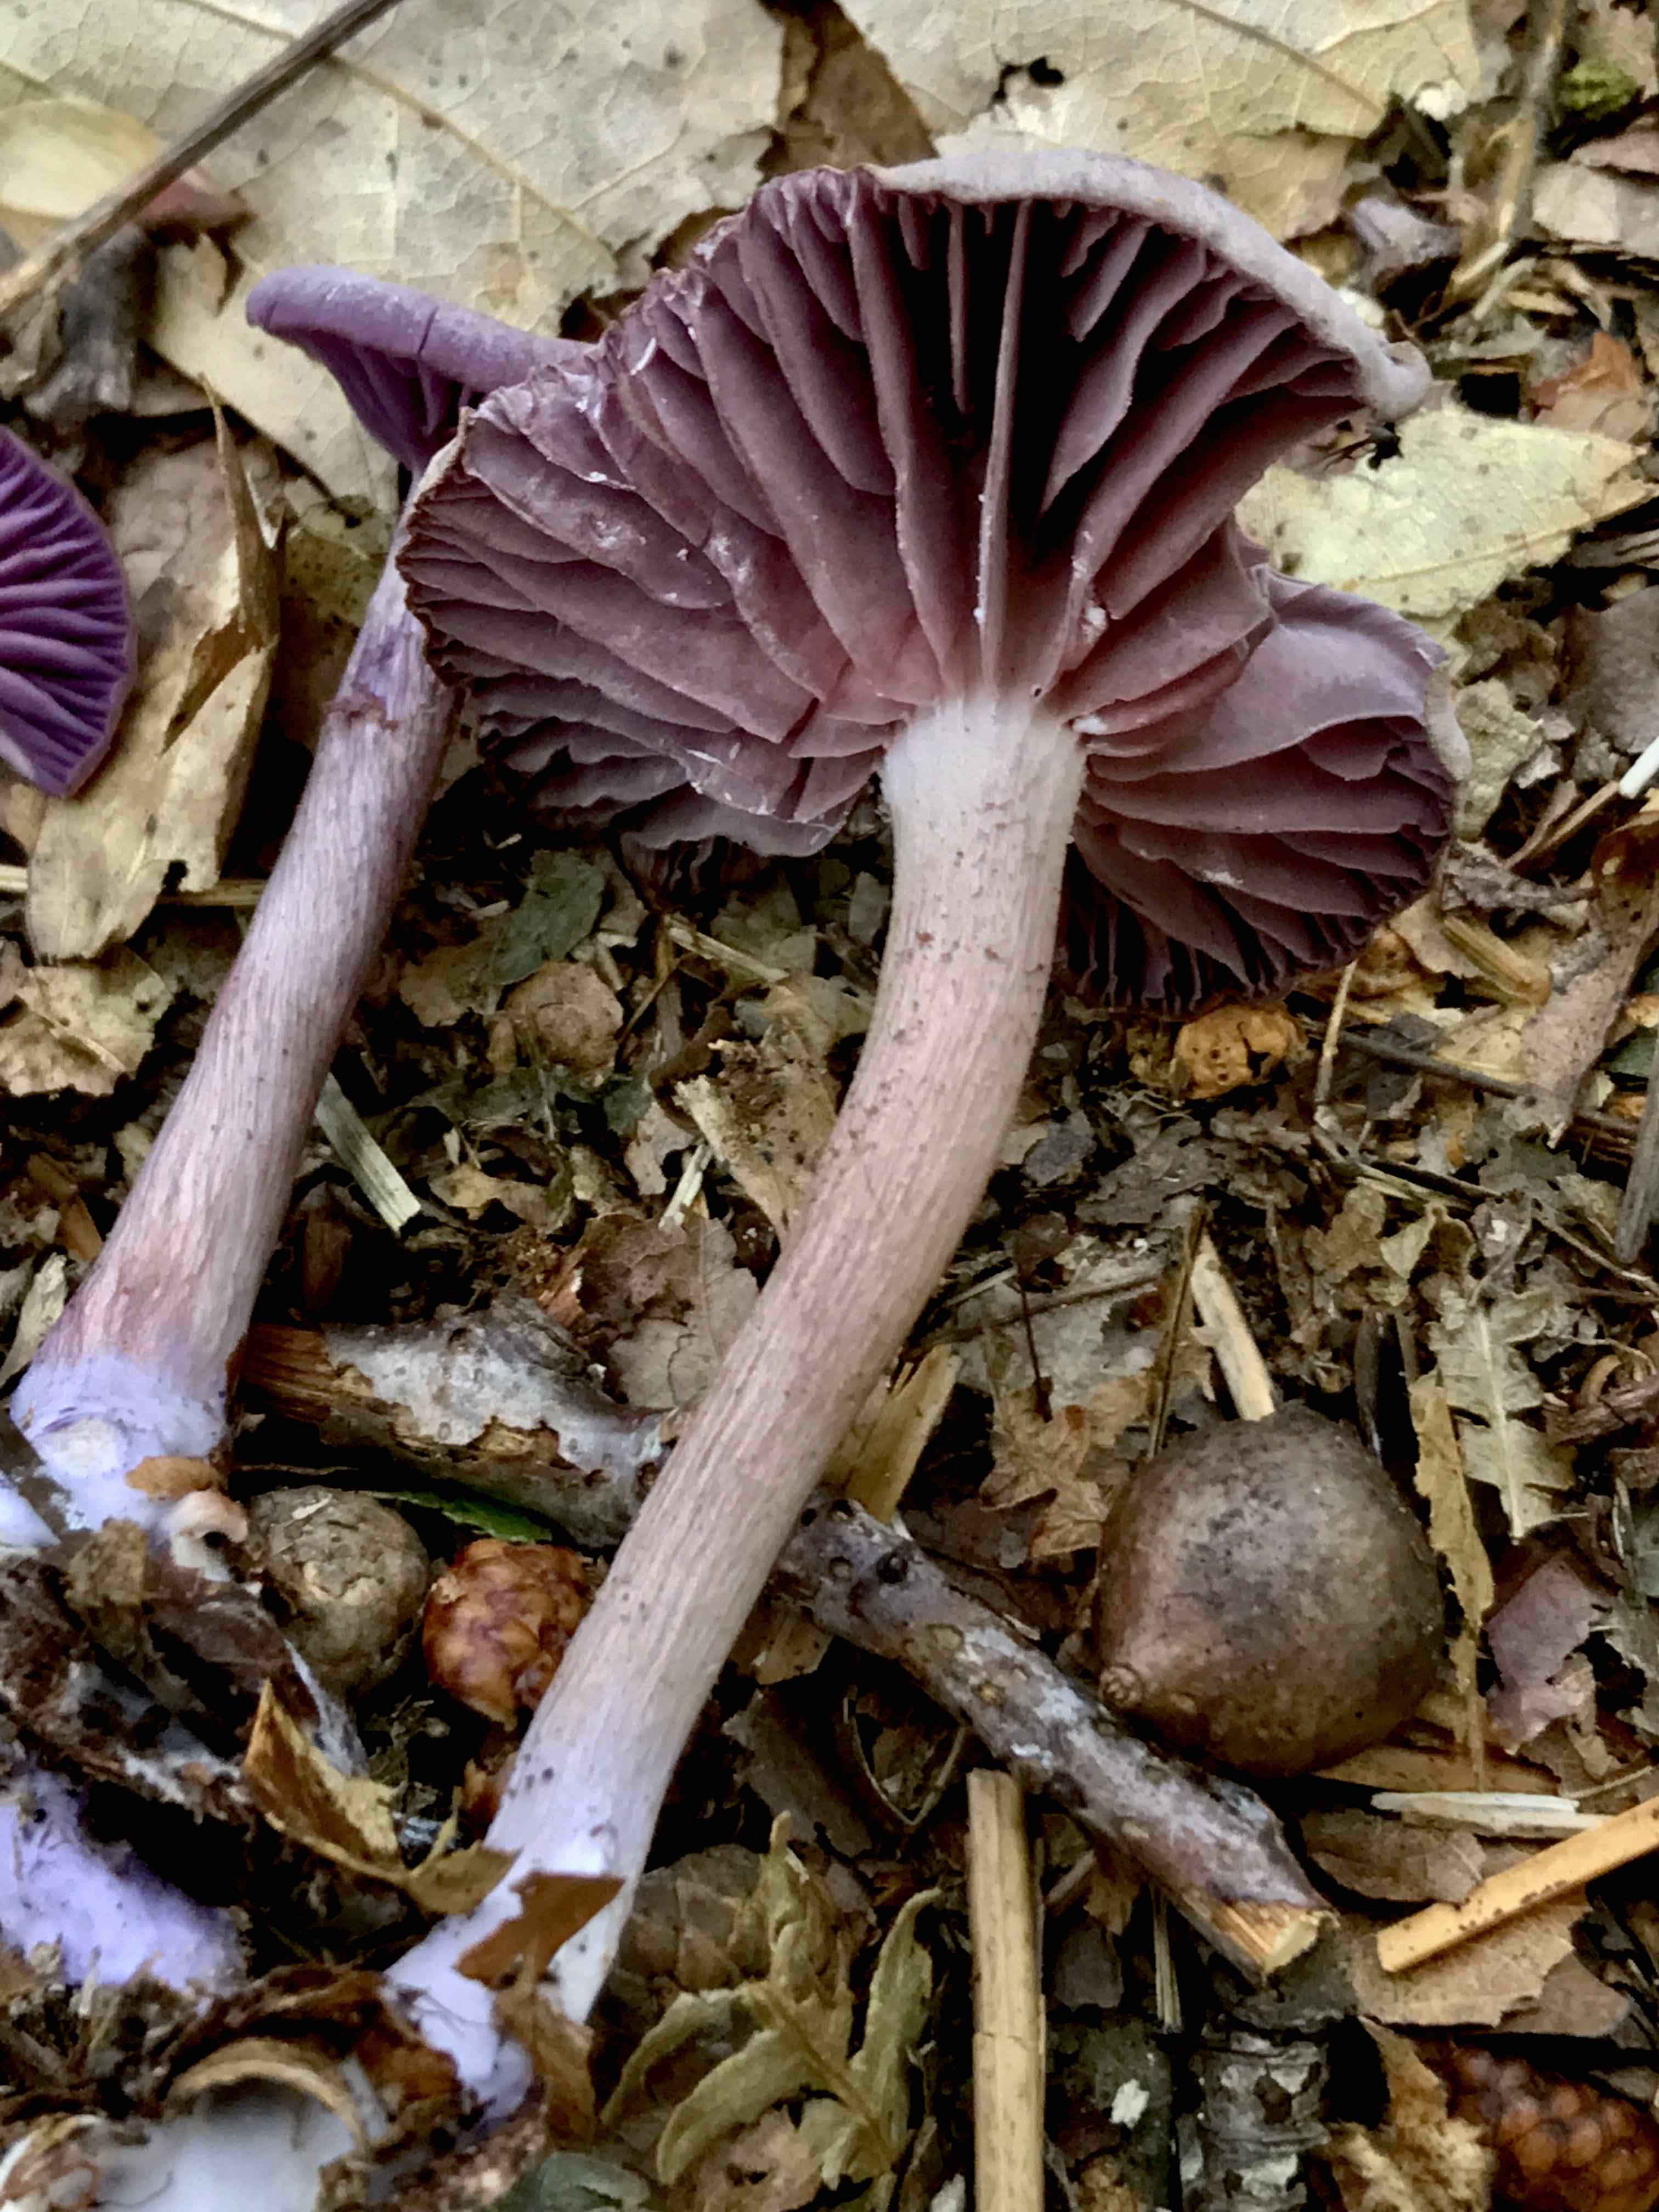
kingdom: Fungi
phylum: Basidiomycota
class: Agaricomycetes
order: Agaricales
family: Hydnangiaceae
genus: Laccaria
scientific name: Laccaria amethystina
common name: violet ametysthat
